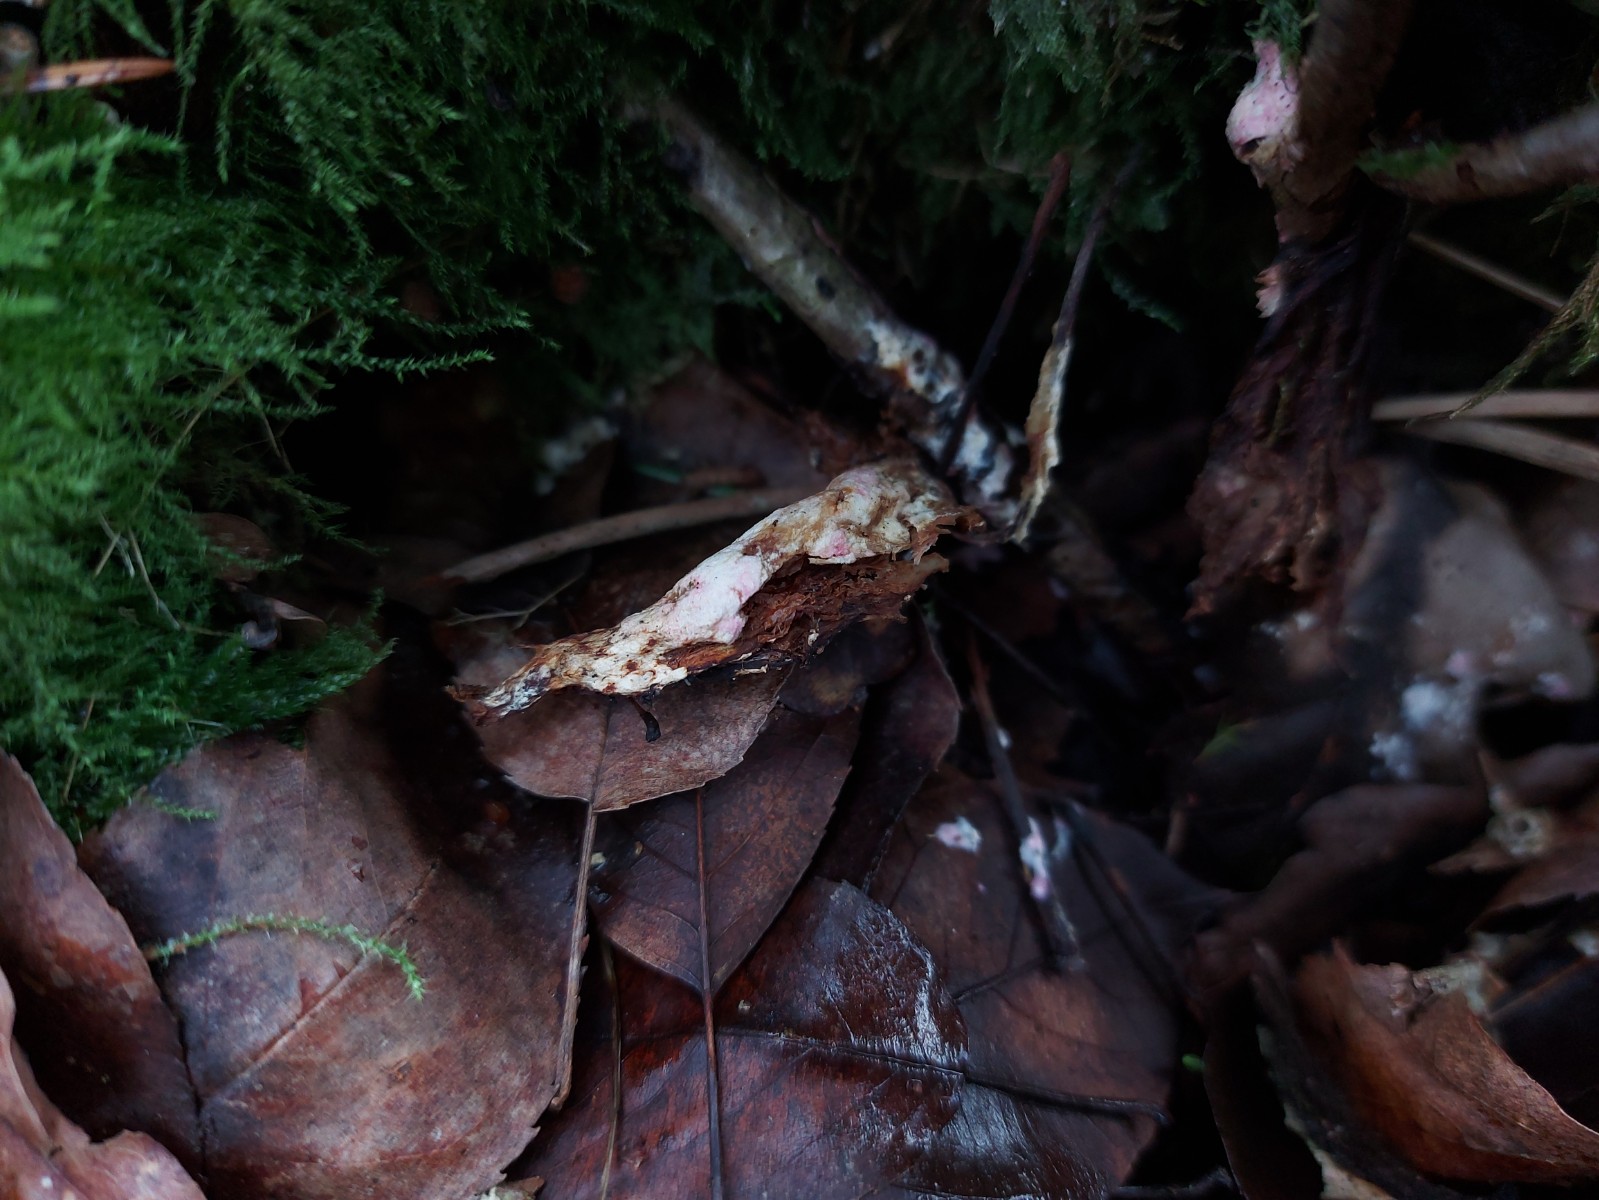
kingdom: Fungi
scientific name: Fungi
